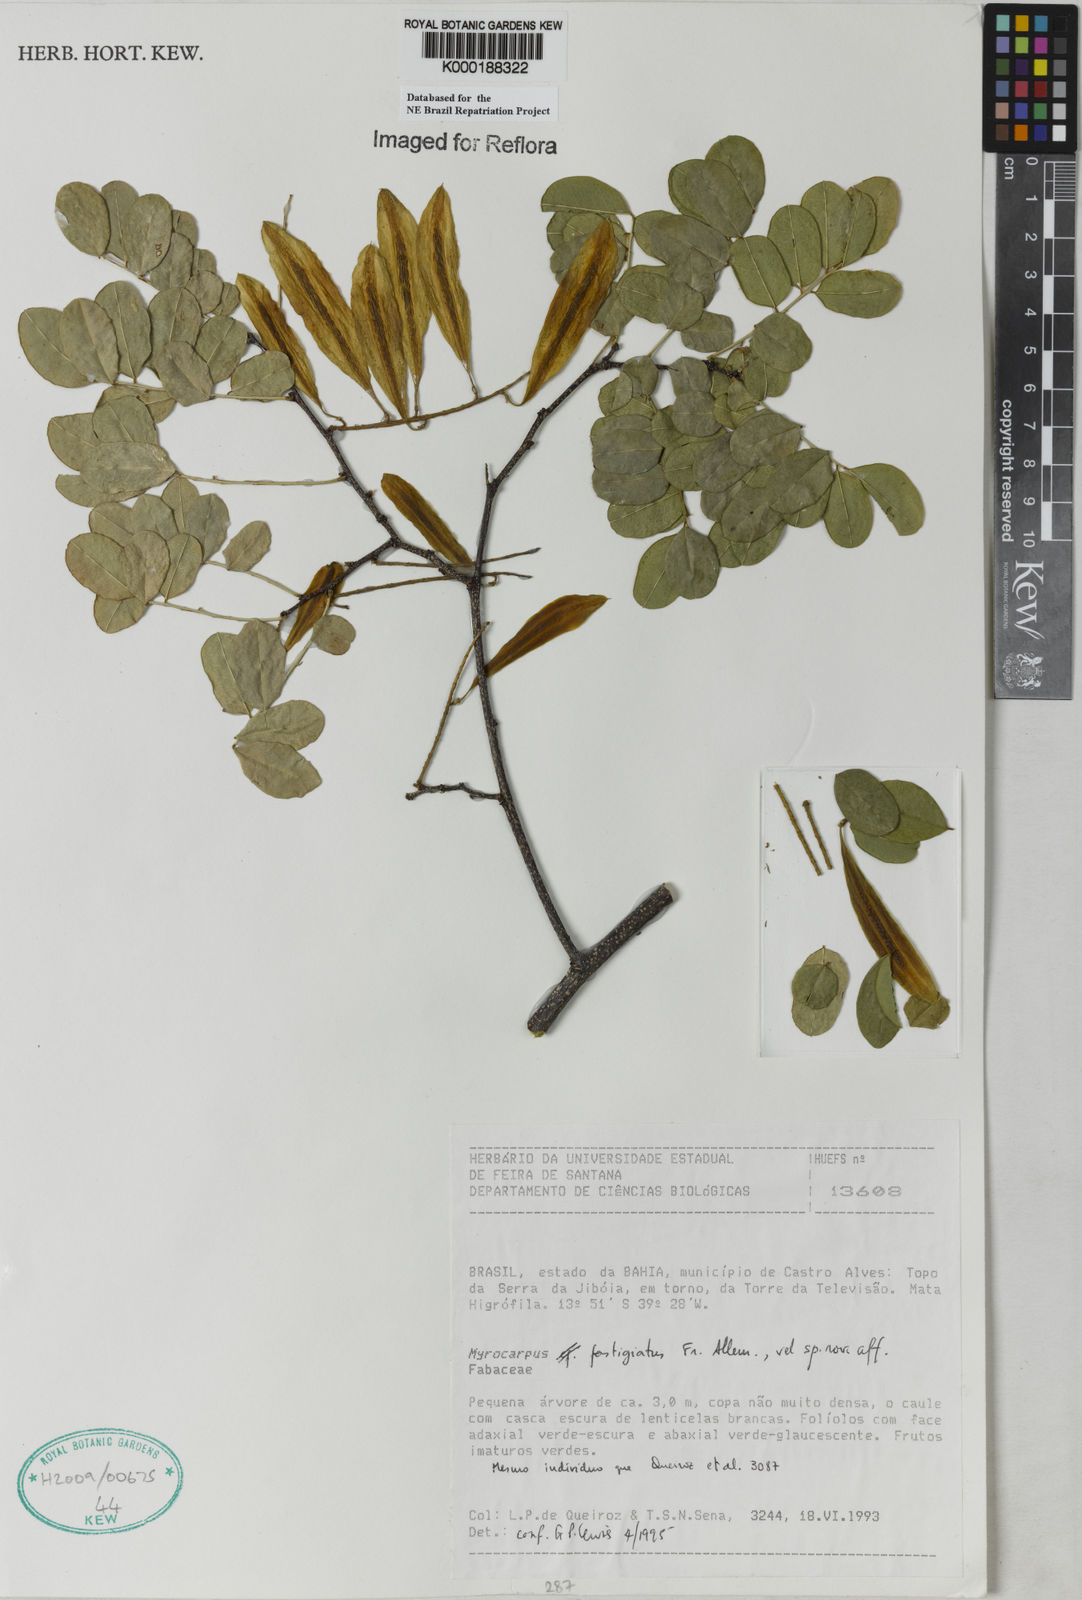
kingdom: Plantae
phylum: Tracheophyta
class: Magnoliopsida
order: Fabales
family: Fabaceae
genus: Myrocarpus
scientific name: Myrocarpus fastigiatus
